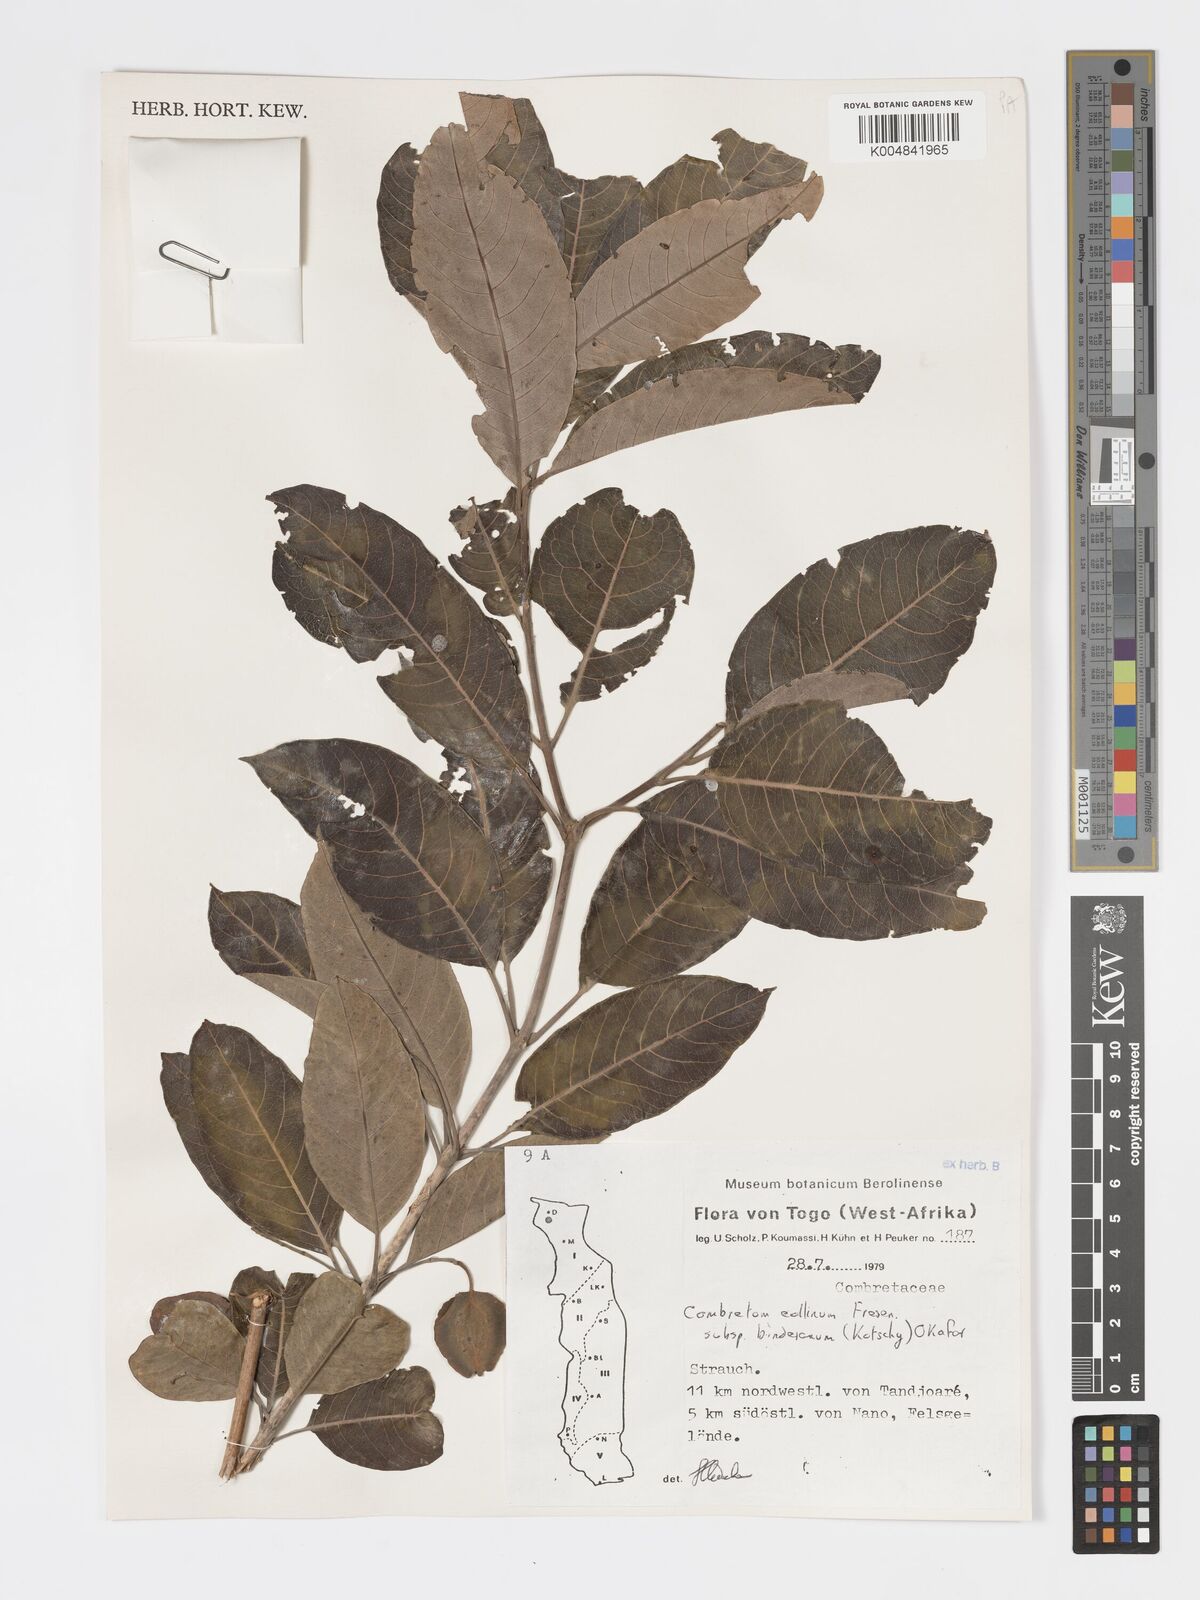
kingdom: Plantae
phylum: Tracheophyta
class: Magnoliopsida
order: Myrtales
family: Combretaceae
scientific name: Combretaceae
